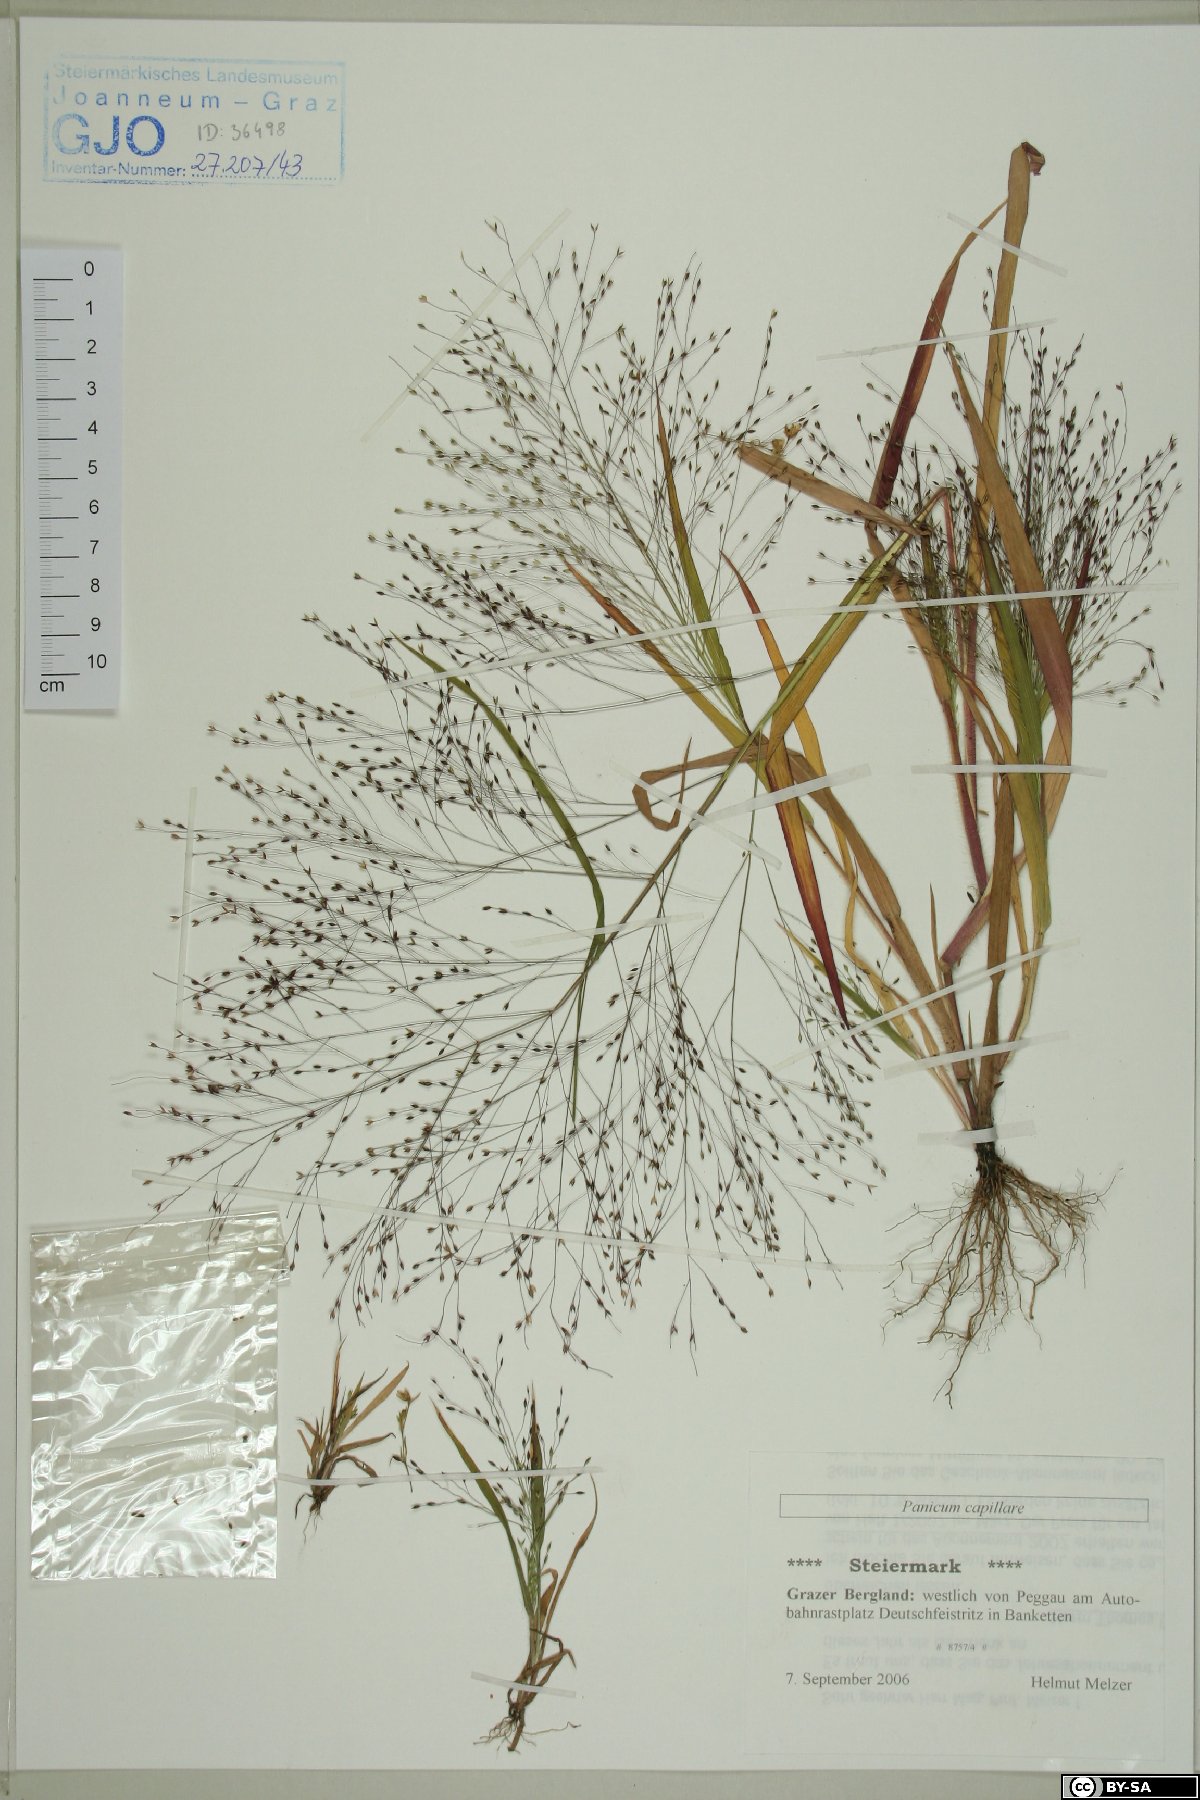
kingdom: Plantae
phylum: Tracheophyta
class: Liliopsida
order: Poales
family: Poaceae
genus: Panicum
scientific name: Panicum capillare
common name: Witch-grass
